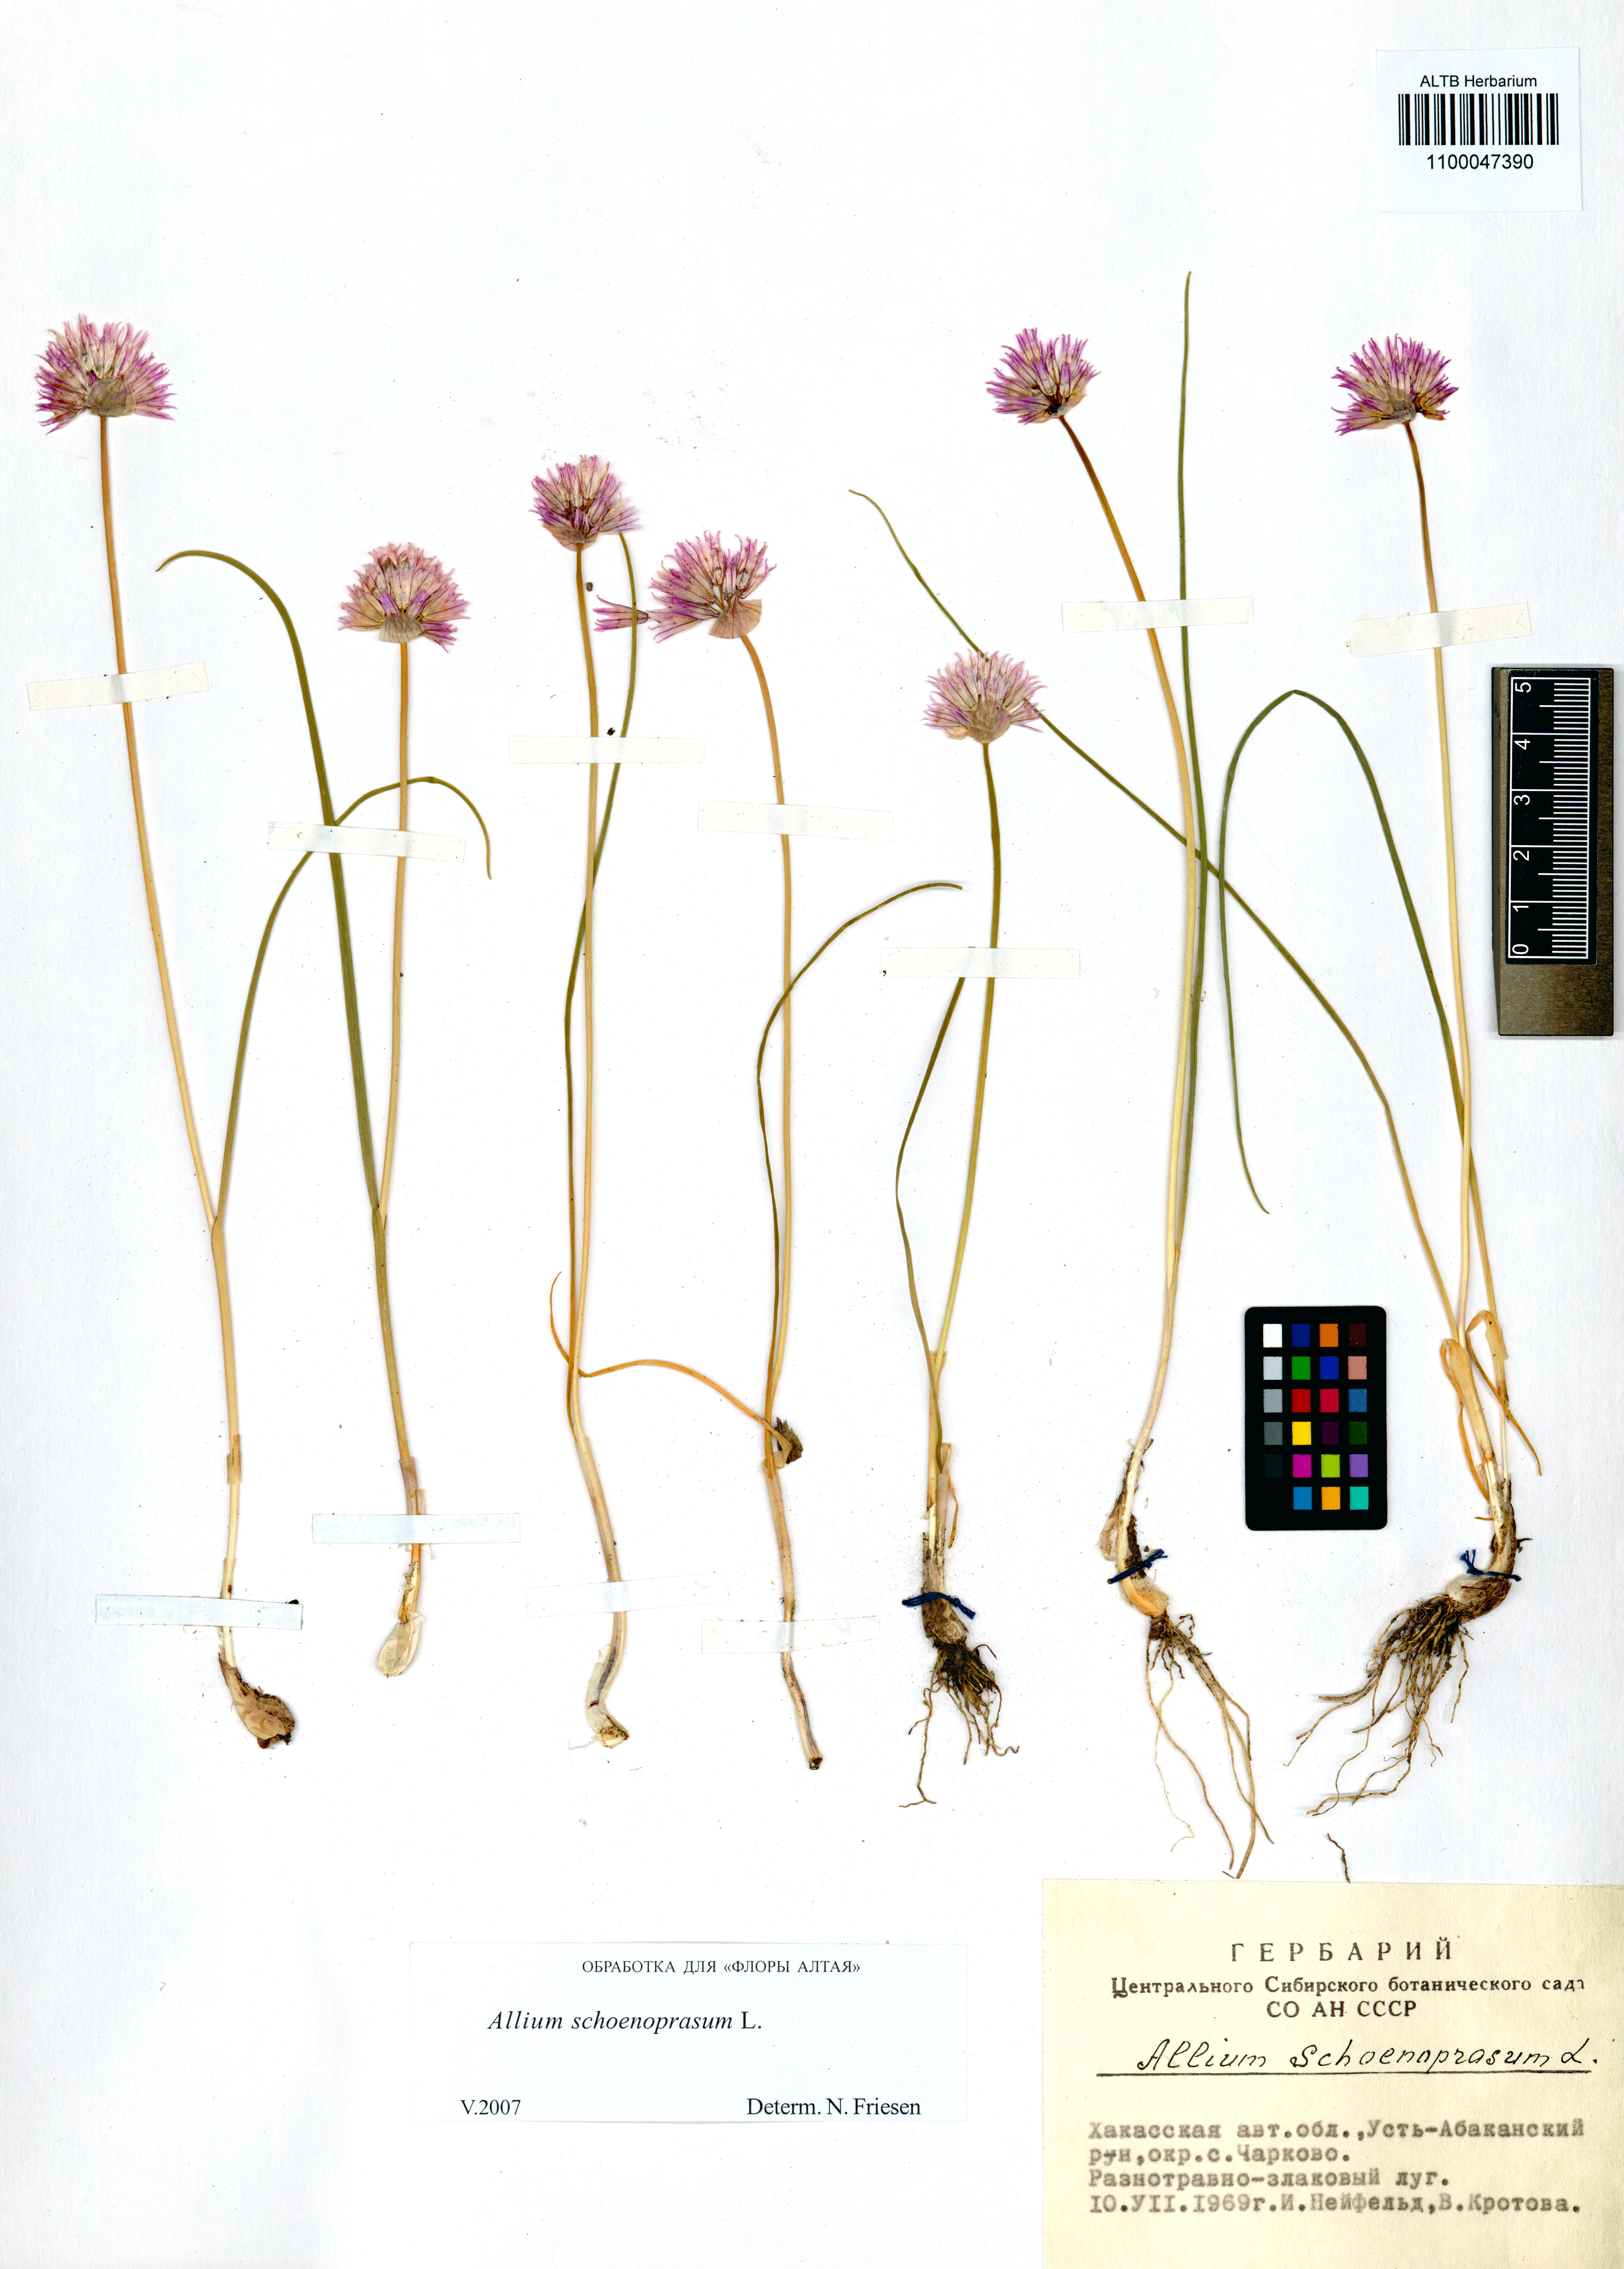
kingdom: Plantae
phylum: Tracheophyta
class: Liliopsida
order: Asparagales
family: Amaryllidaceae
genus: Allium
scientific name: Allium schoenoprasum
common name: Chives
